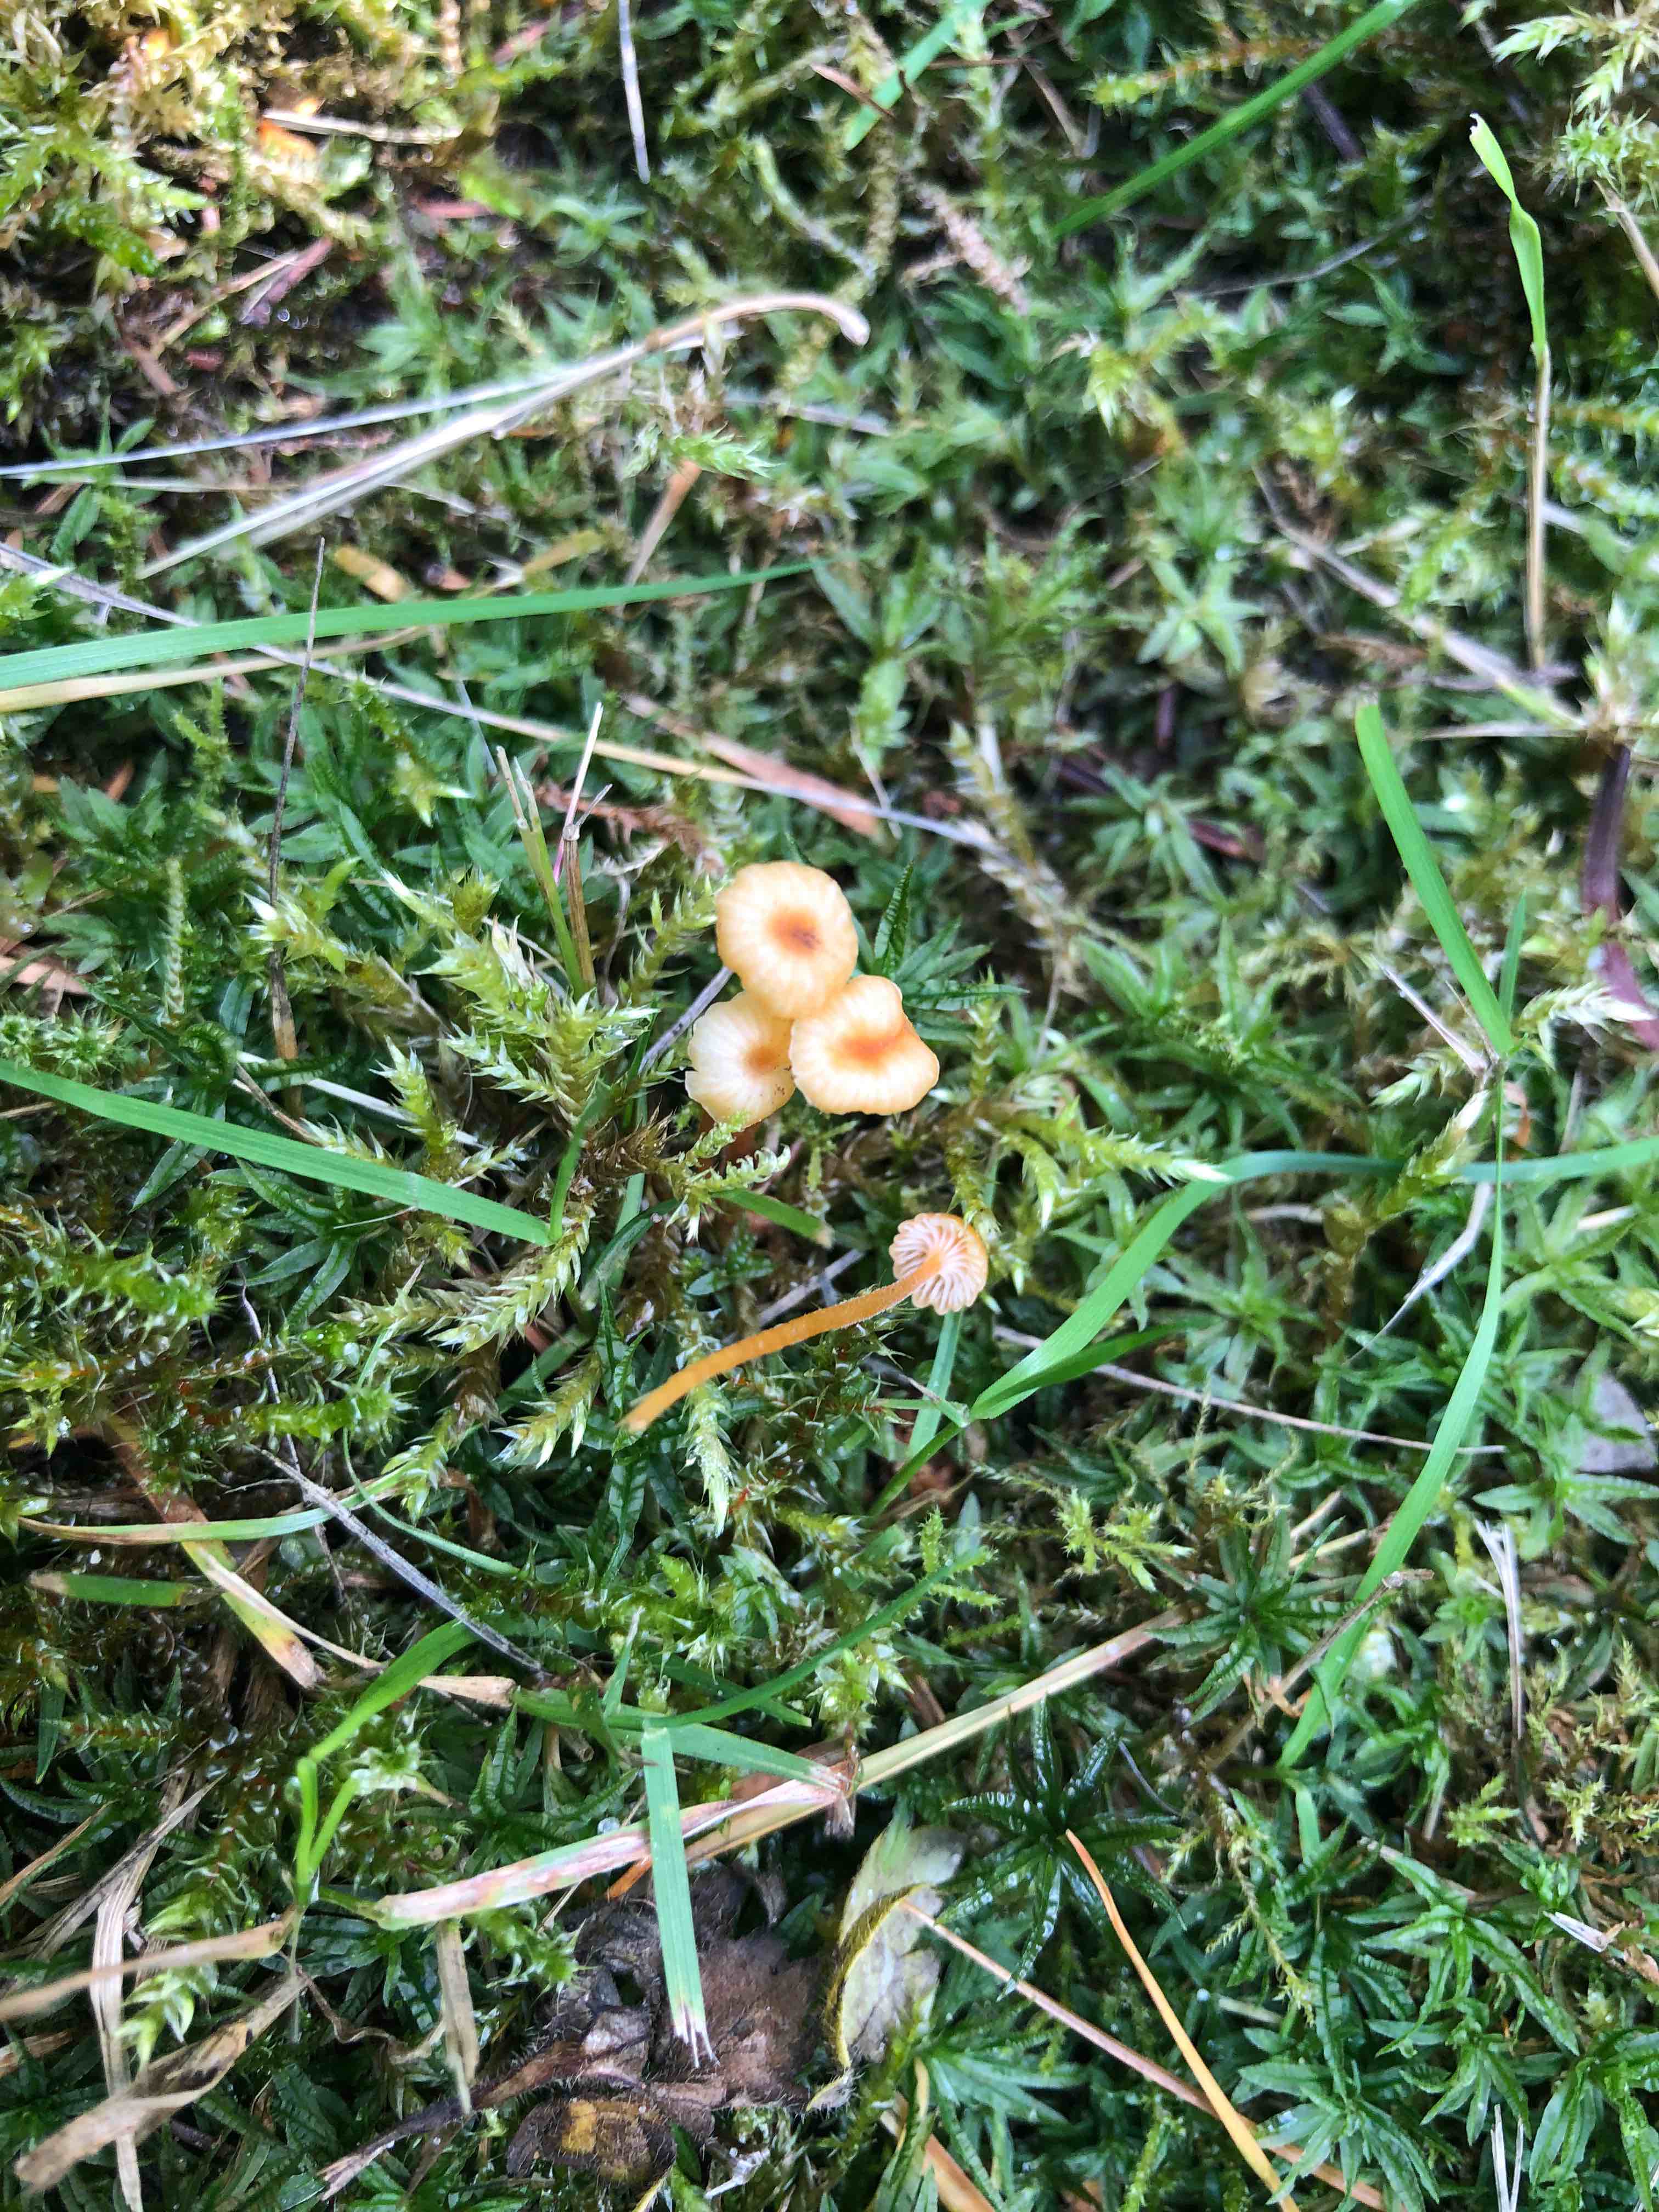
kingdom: Fungi
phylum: Basidiomycota
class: Agaricomycetes
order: Hymenochaetales
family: Rickenellaceae
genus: Rickenella
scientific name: Rickenella fibula
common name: orange mosnavlehat
